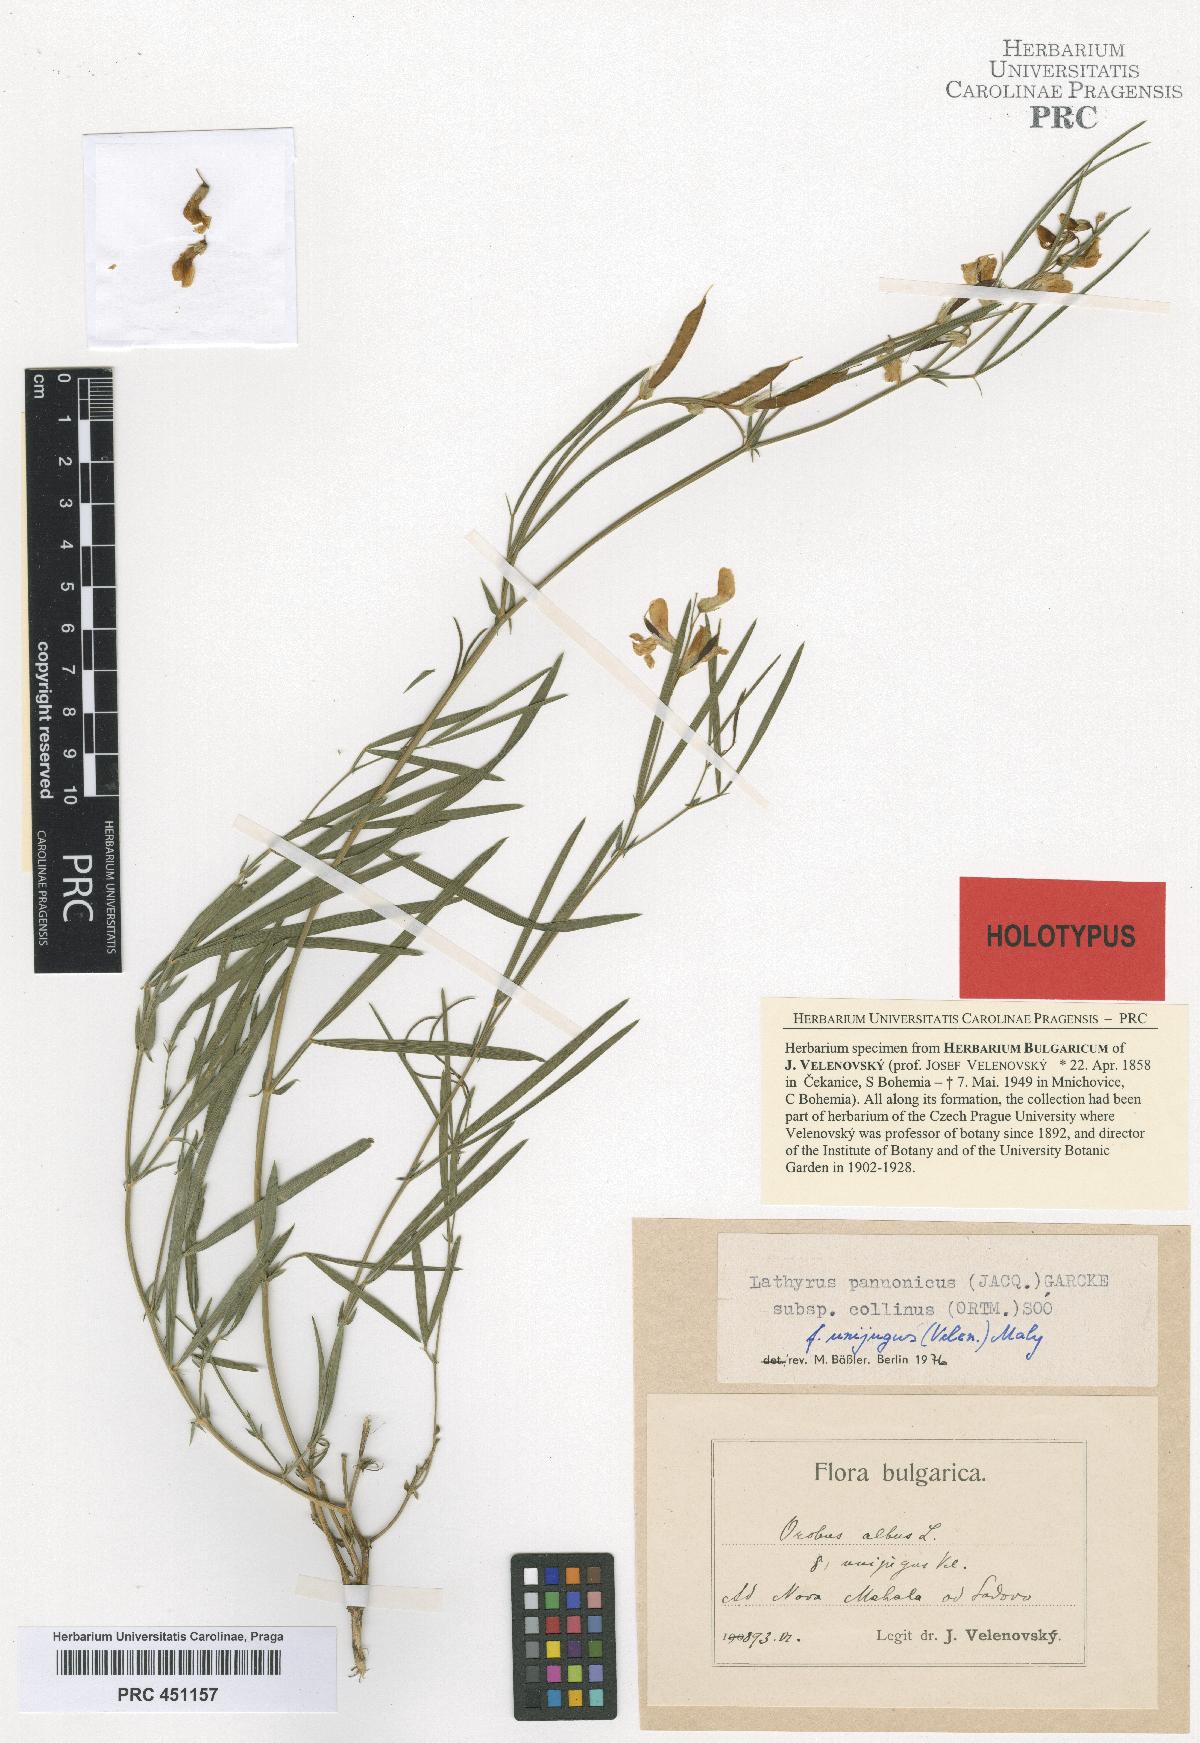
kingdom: Plantae
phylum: Tracheophyta
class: Magnoliopsida
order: Fabales
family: Fabaceae
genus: Lathyrus
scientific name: Lathyrus pannonicus
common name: Pea
